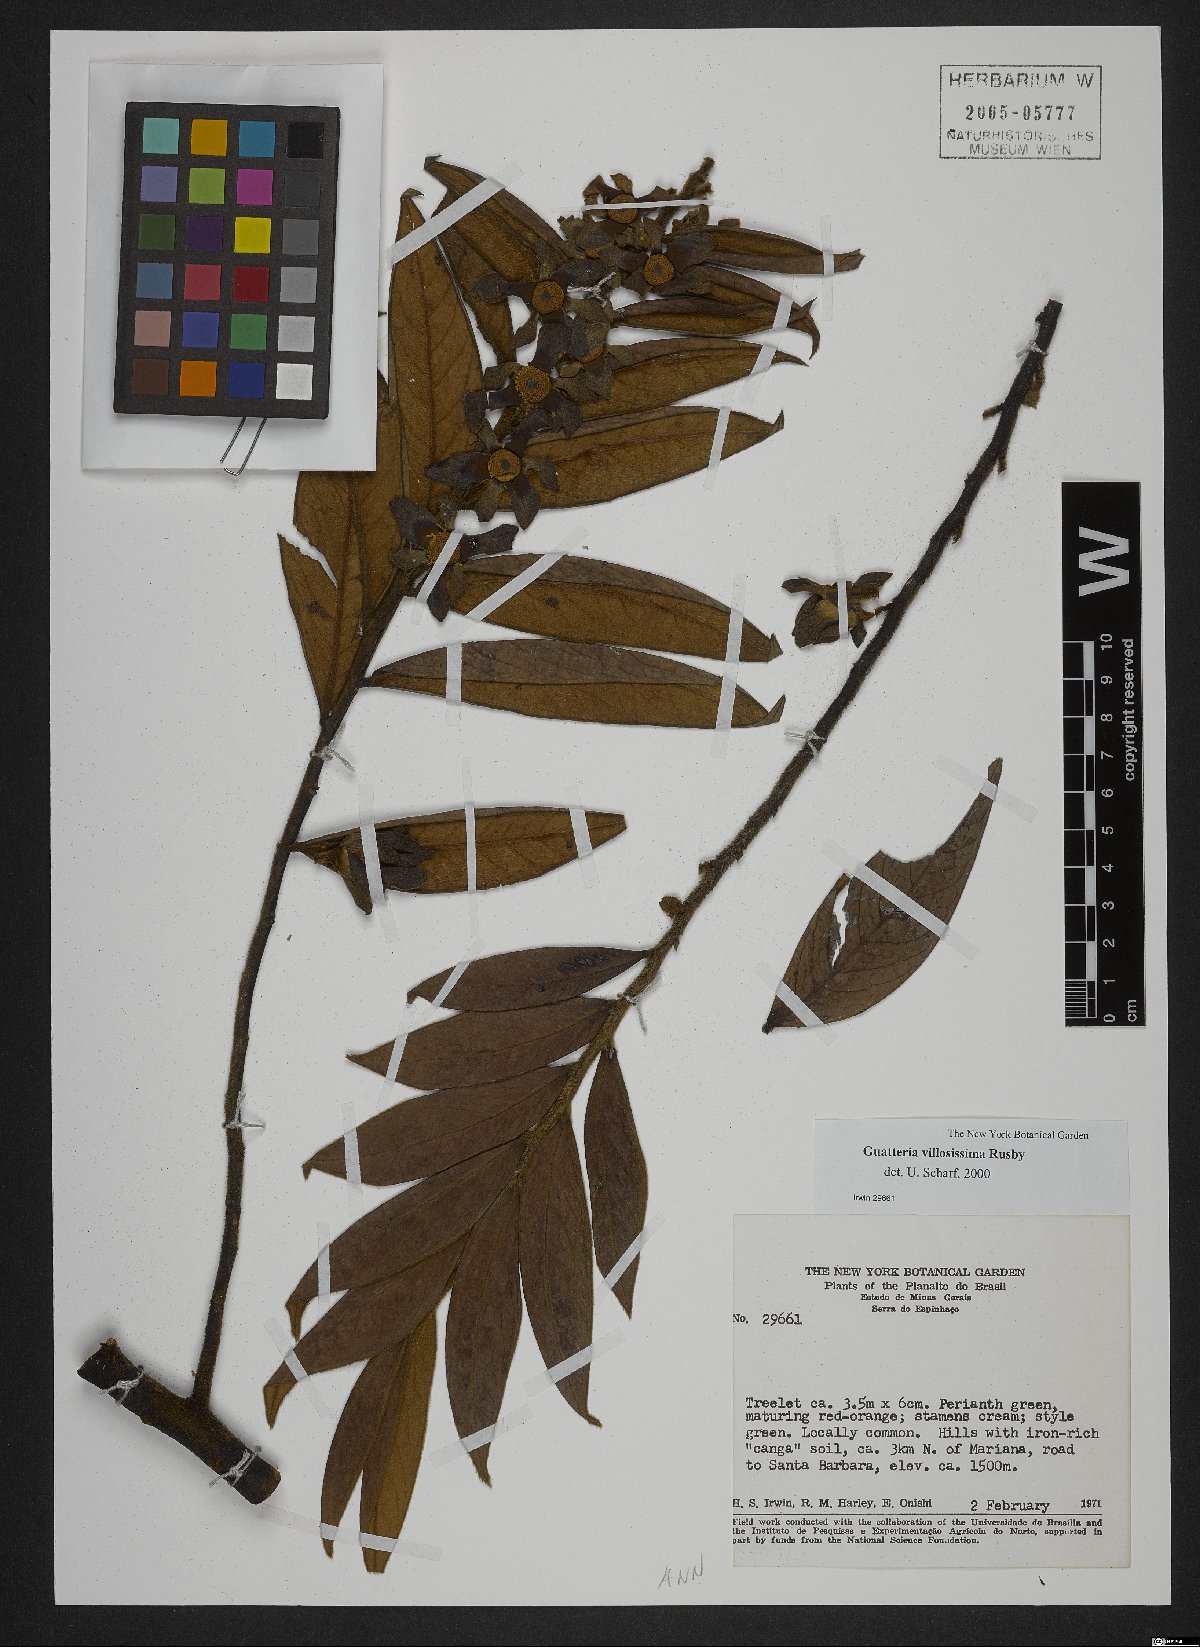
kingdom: Plantae
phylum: Tracheophyta
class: Magnoliopsida
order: Magnoliales
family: Annonaceae
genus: Guatteria
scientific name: Guatteria villosissima
